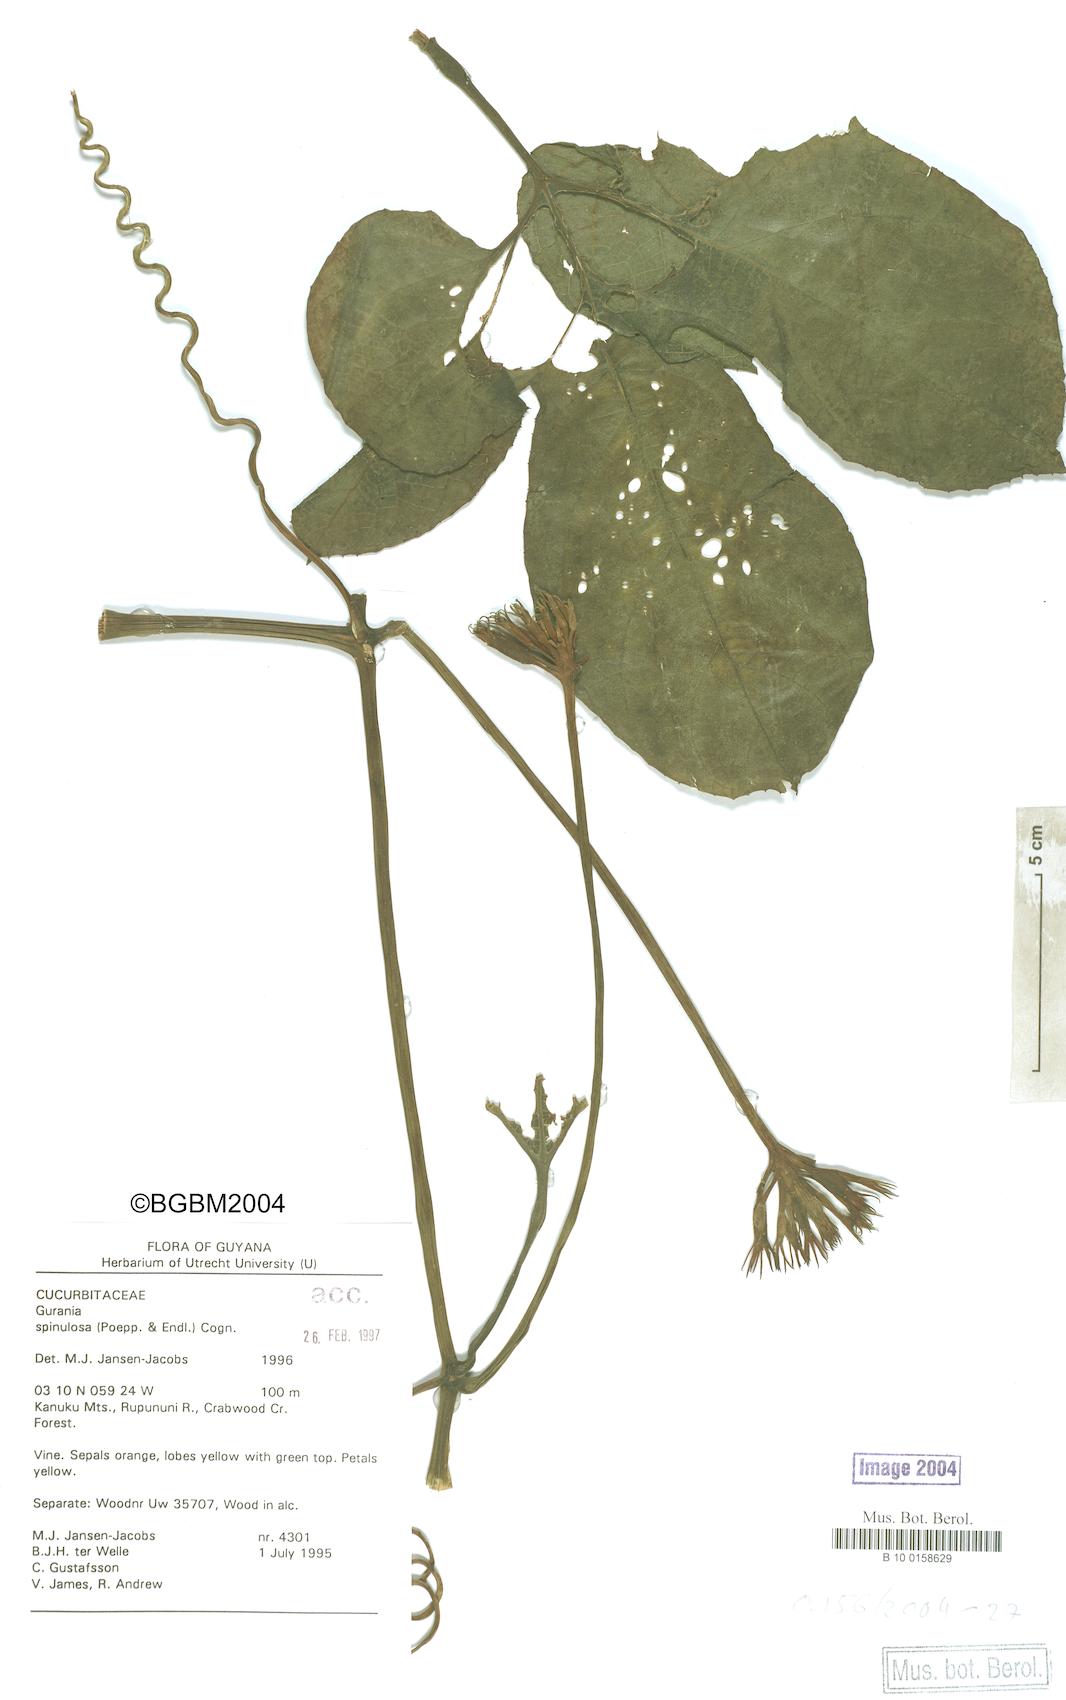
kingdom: Plantae
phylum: Tracheophyta
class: Magnoliopsida
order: Cucurbitales
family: Cucurbitaceae
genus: Gurania
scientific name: Gurania lobata
